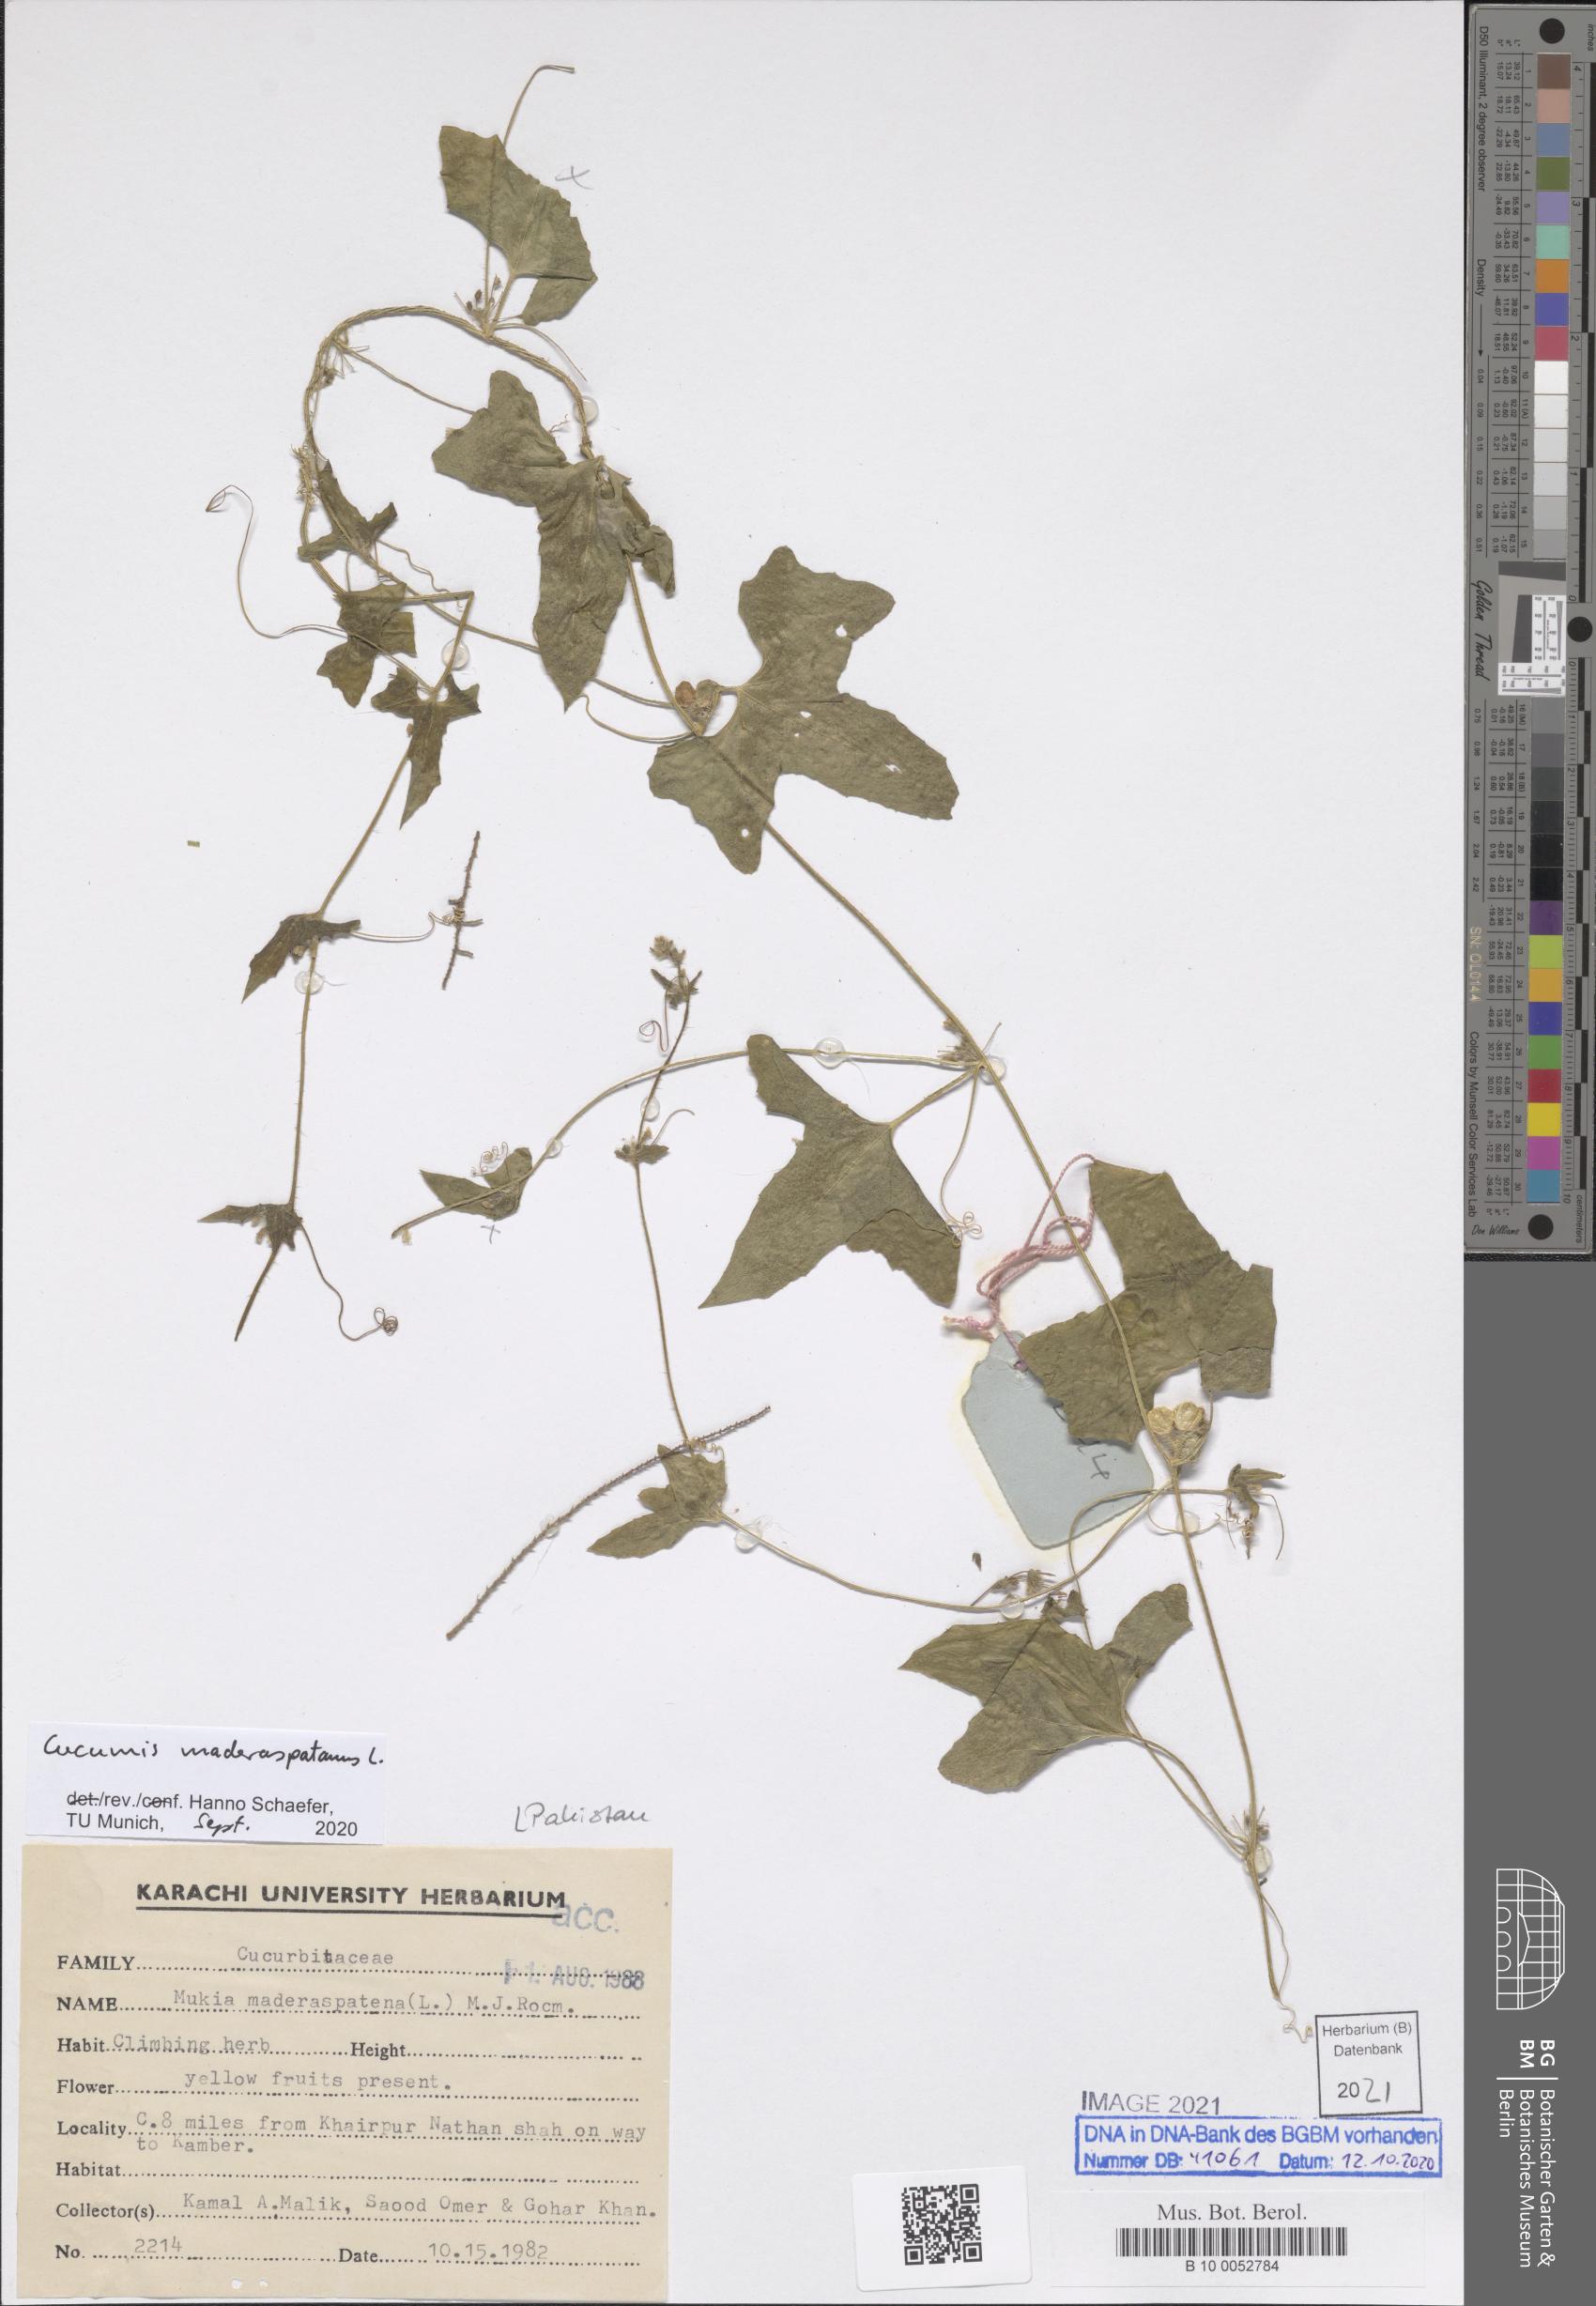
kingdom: Plantae
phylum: Tracheophyta
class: Magnoliopsida
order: Cucurbitales
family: Cucurbitaceae
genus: Cucumis
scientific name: Cucumis maderaspatanus
